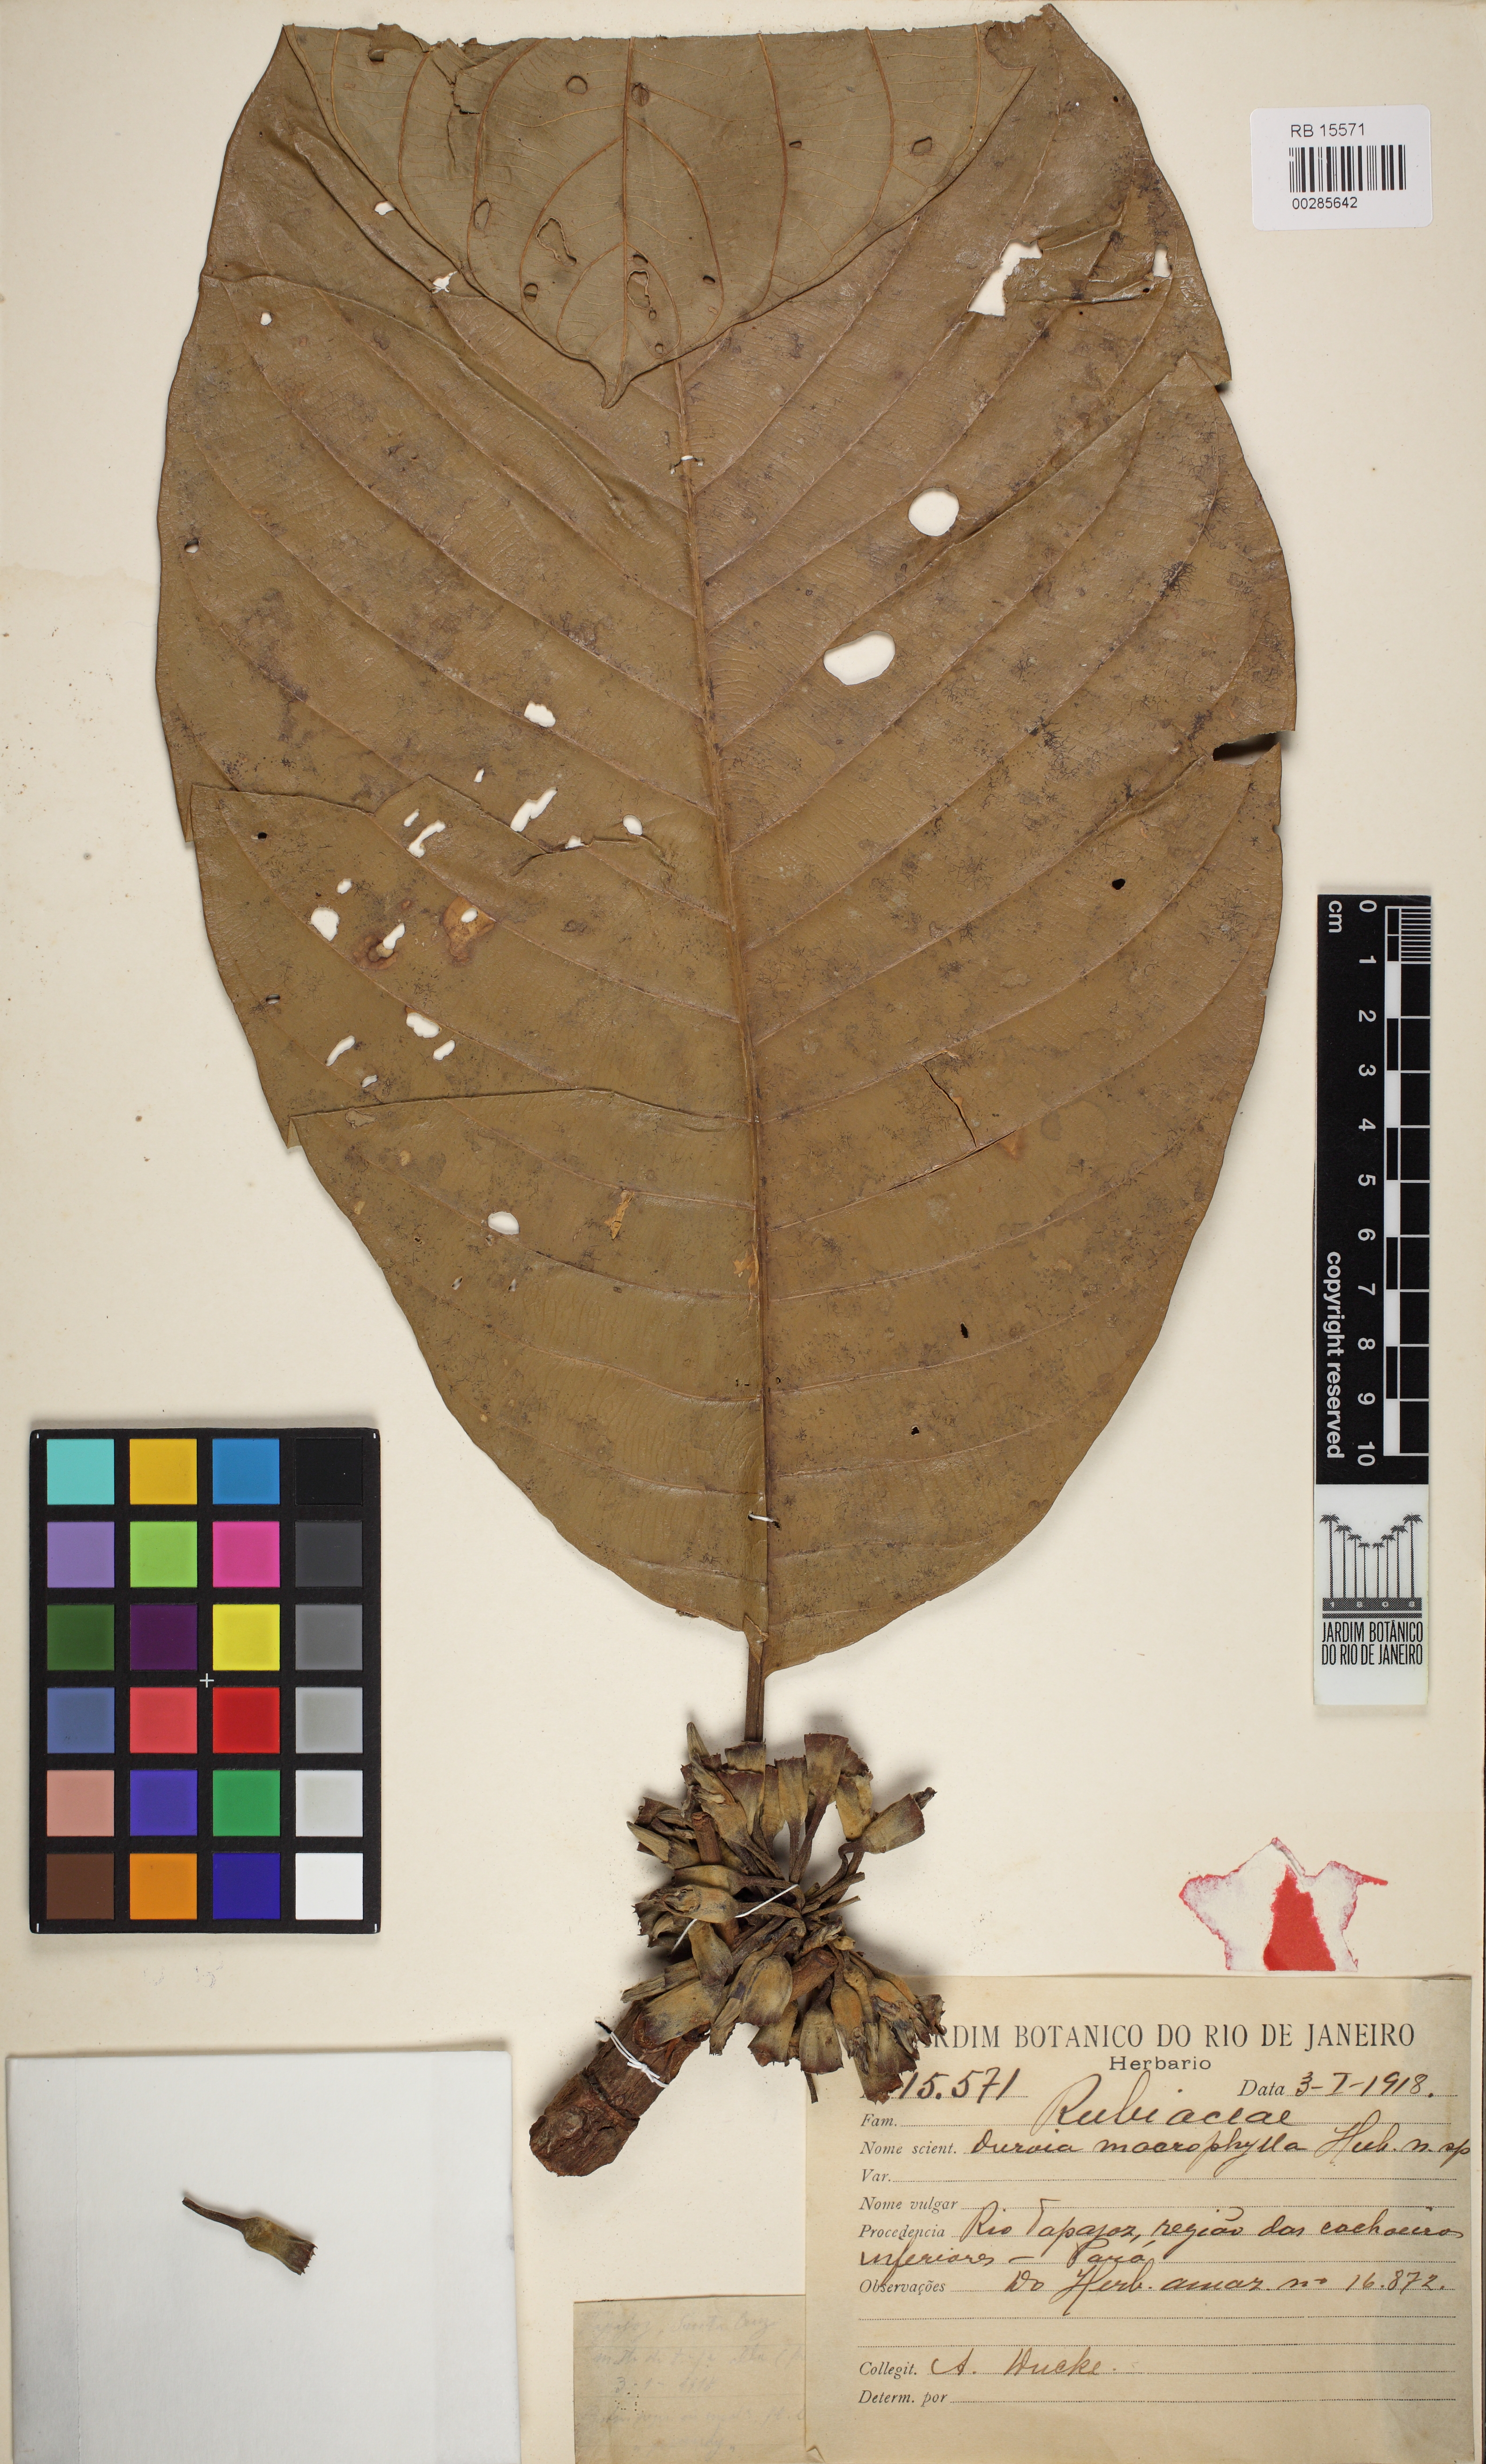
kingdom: Plantae
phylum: Tracheophyta
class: Magnoliopsida
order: Gentianales
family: Rubiaceae
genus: Duroia
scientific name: Duroia macrophylla
